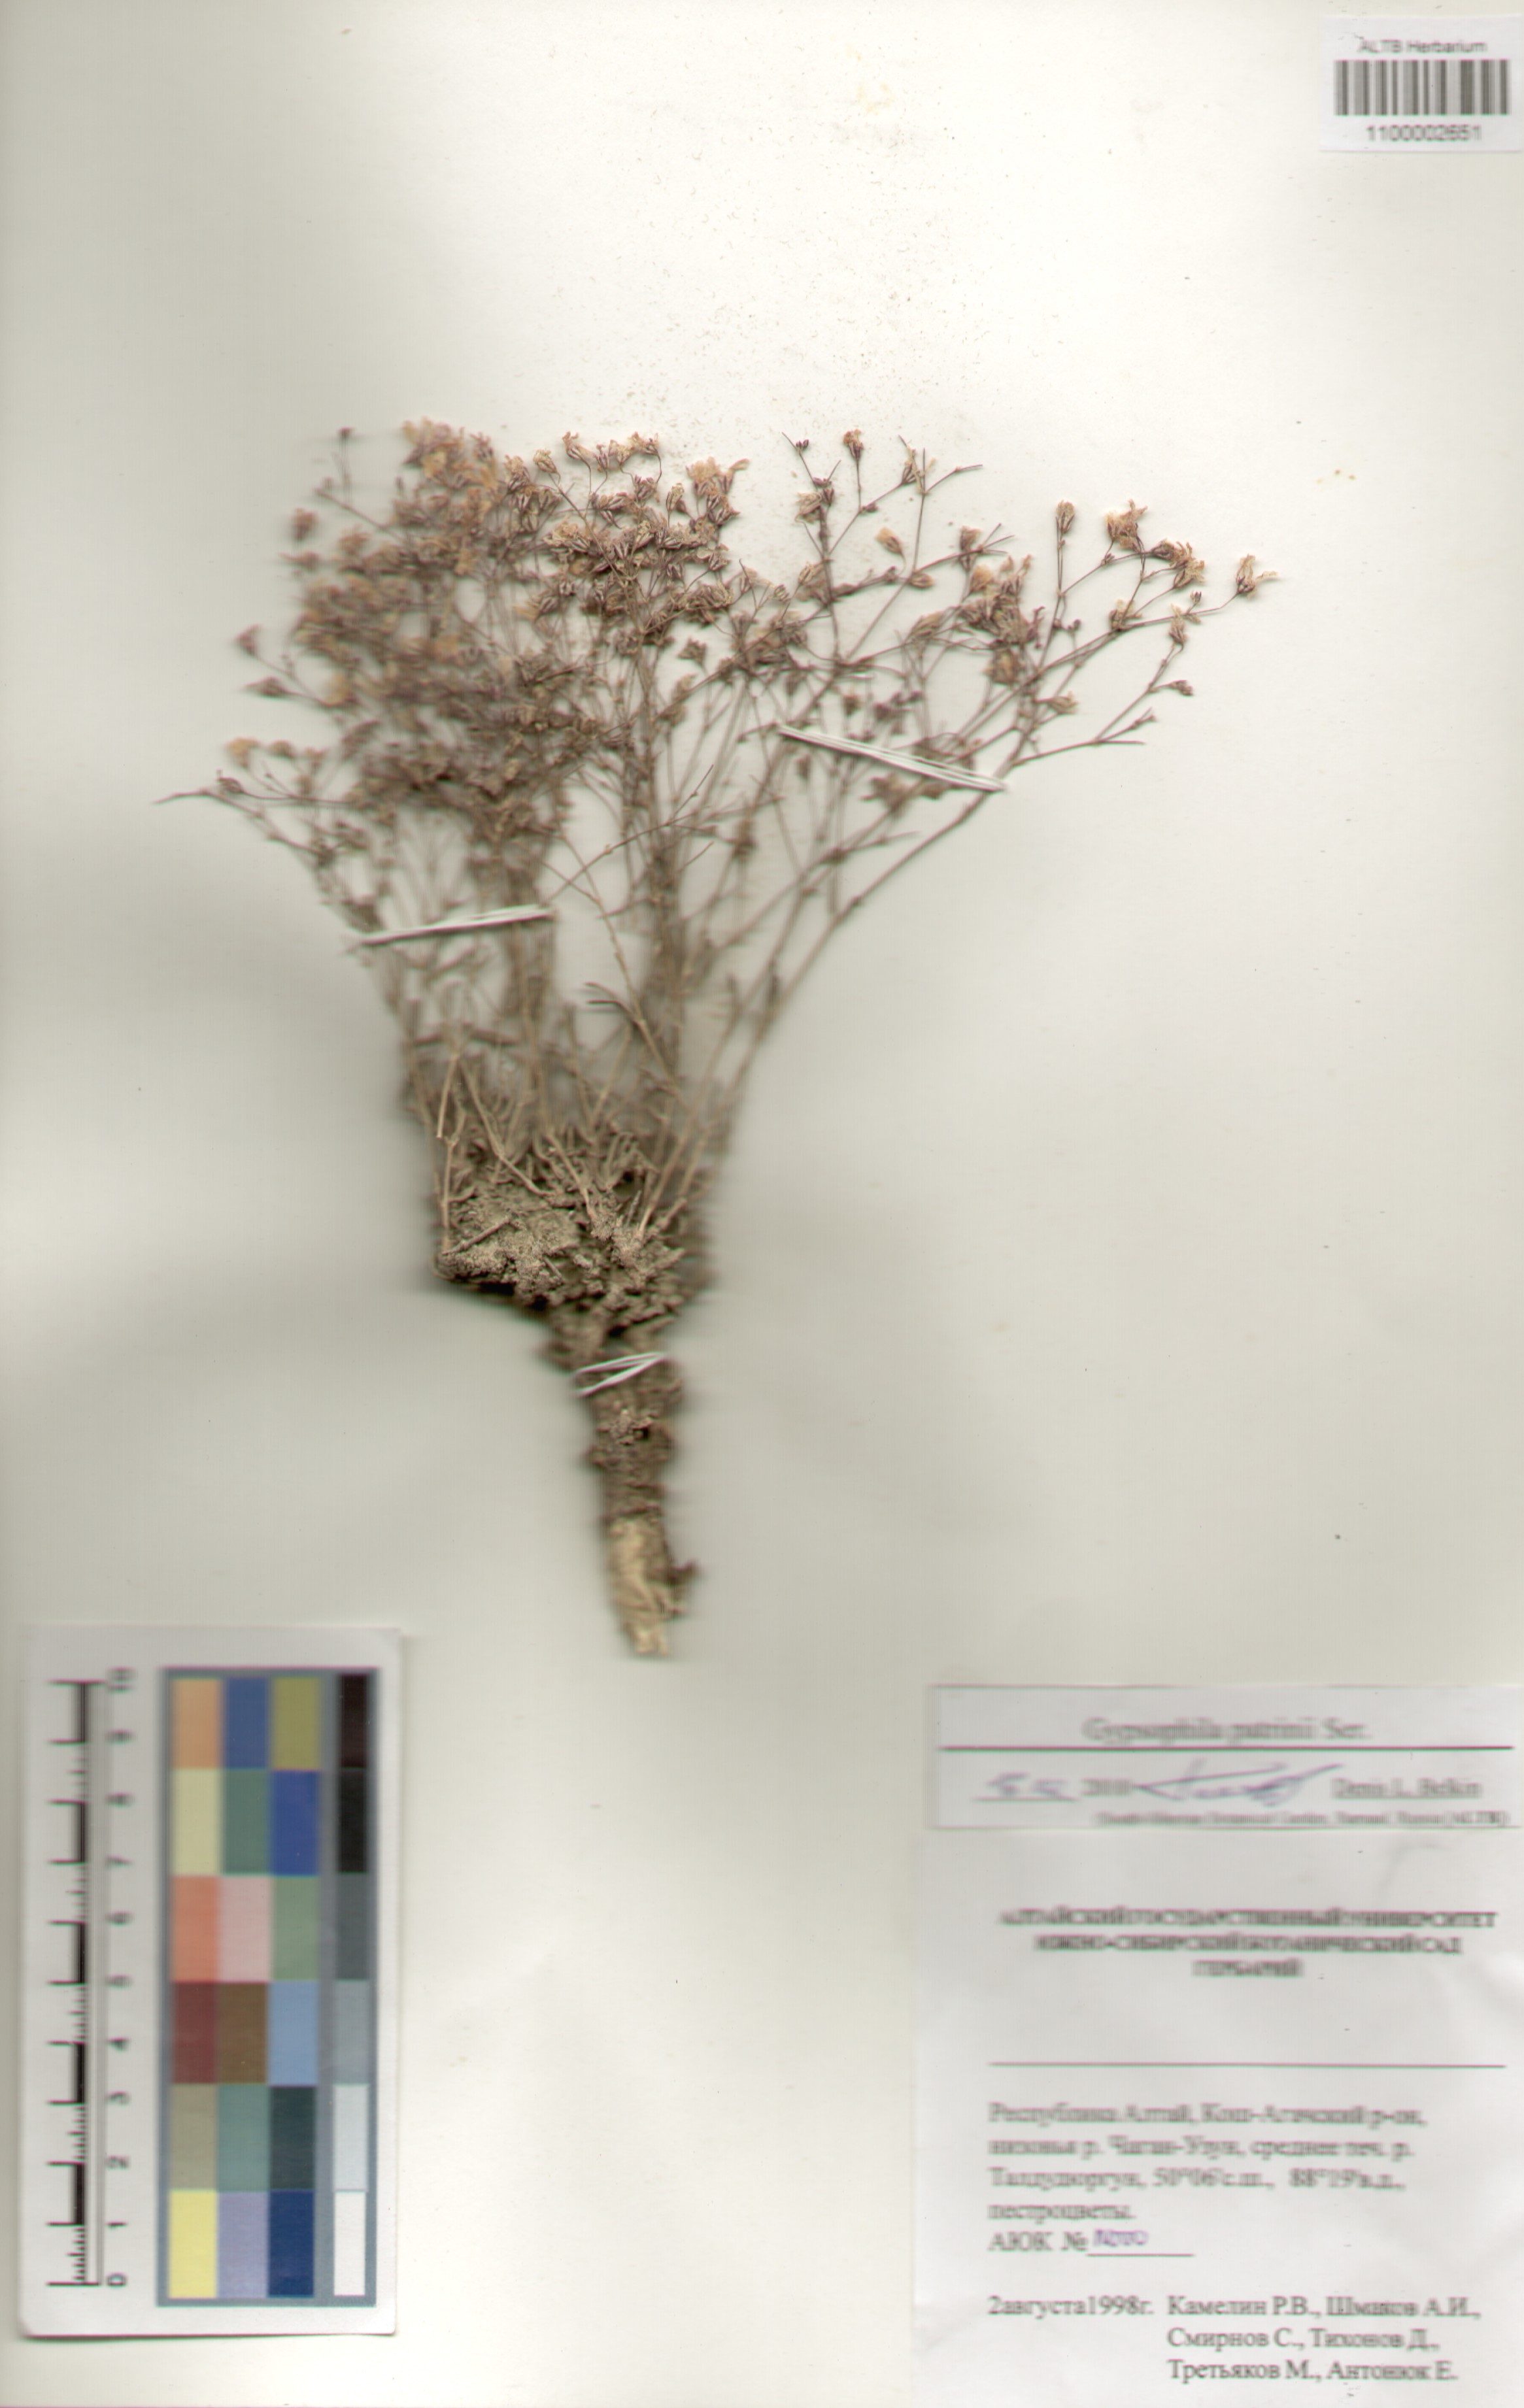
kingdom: Plantae
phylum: Tracheophyta
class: Magnoliopsida
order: Caryophyllales
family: Caryophyllaceae
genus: Gypsophila
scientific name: Gypsophila patrinii
